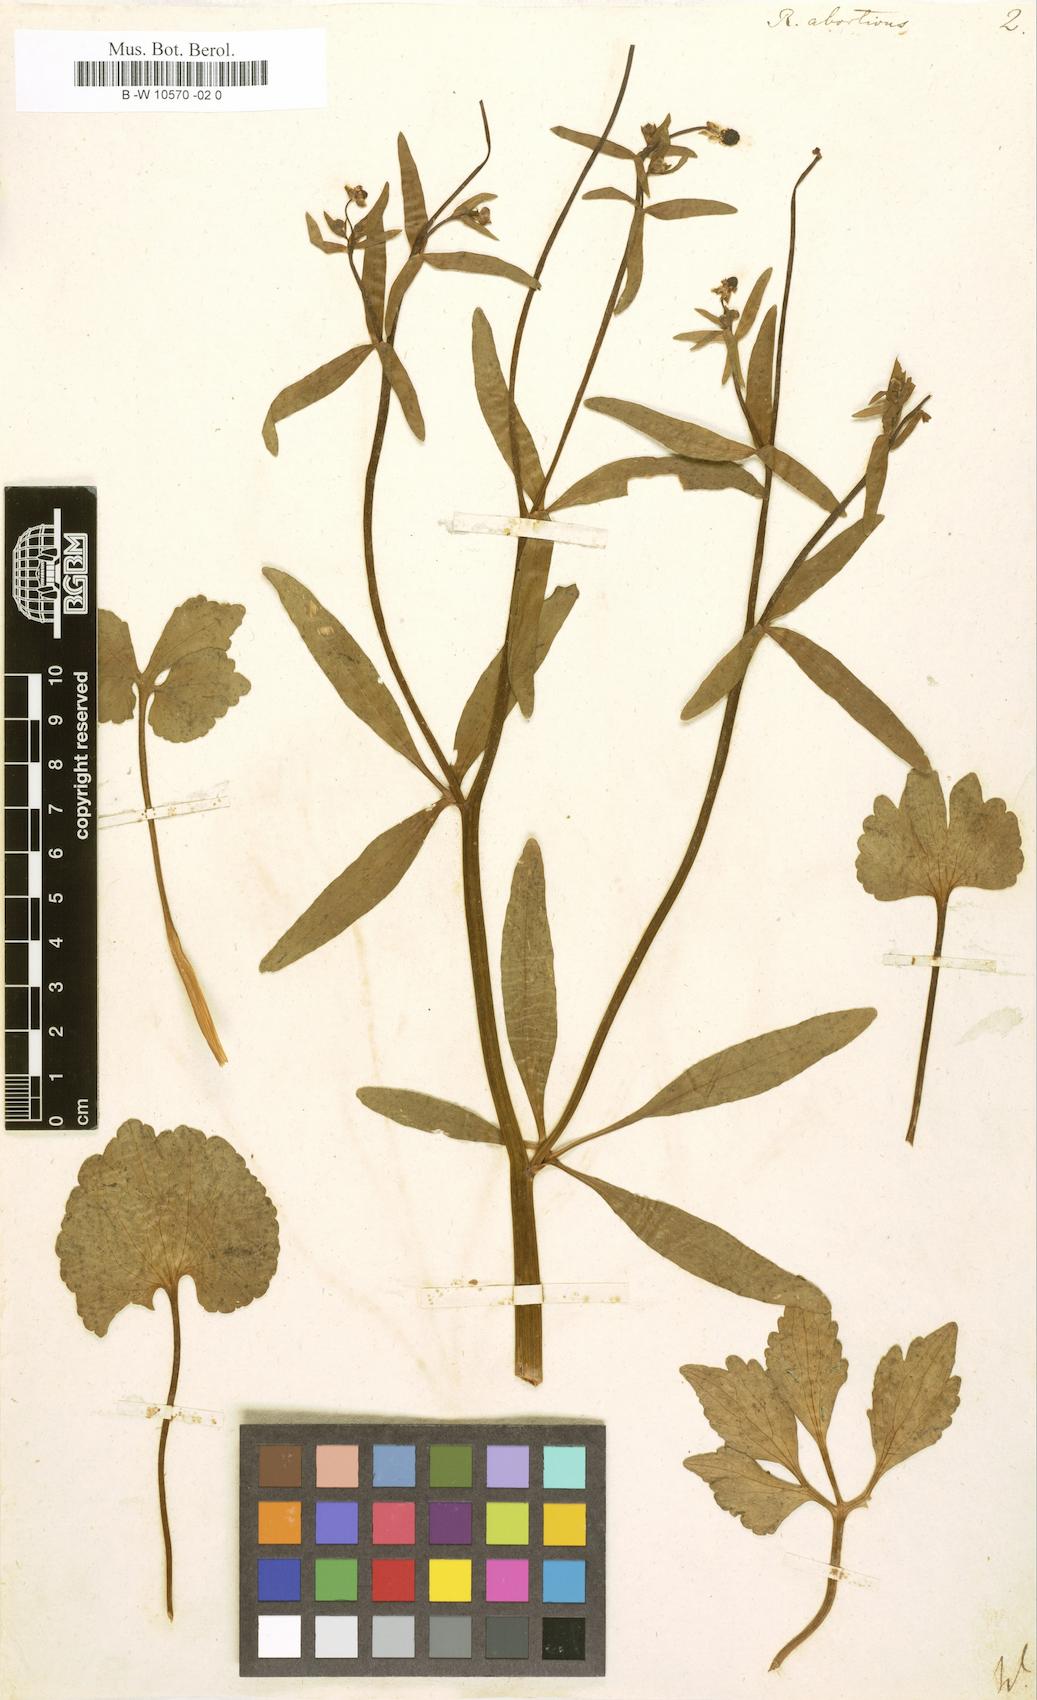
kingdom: Plantae
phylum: Tracheophyta
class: Magnoliopsida
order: Ranunculales
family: Ranunculaceae
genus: Ranunculus
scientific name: Ranunculus abortivus
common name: Early wood buttercup
